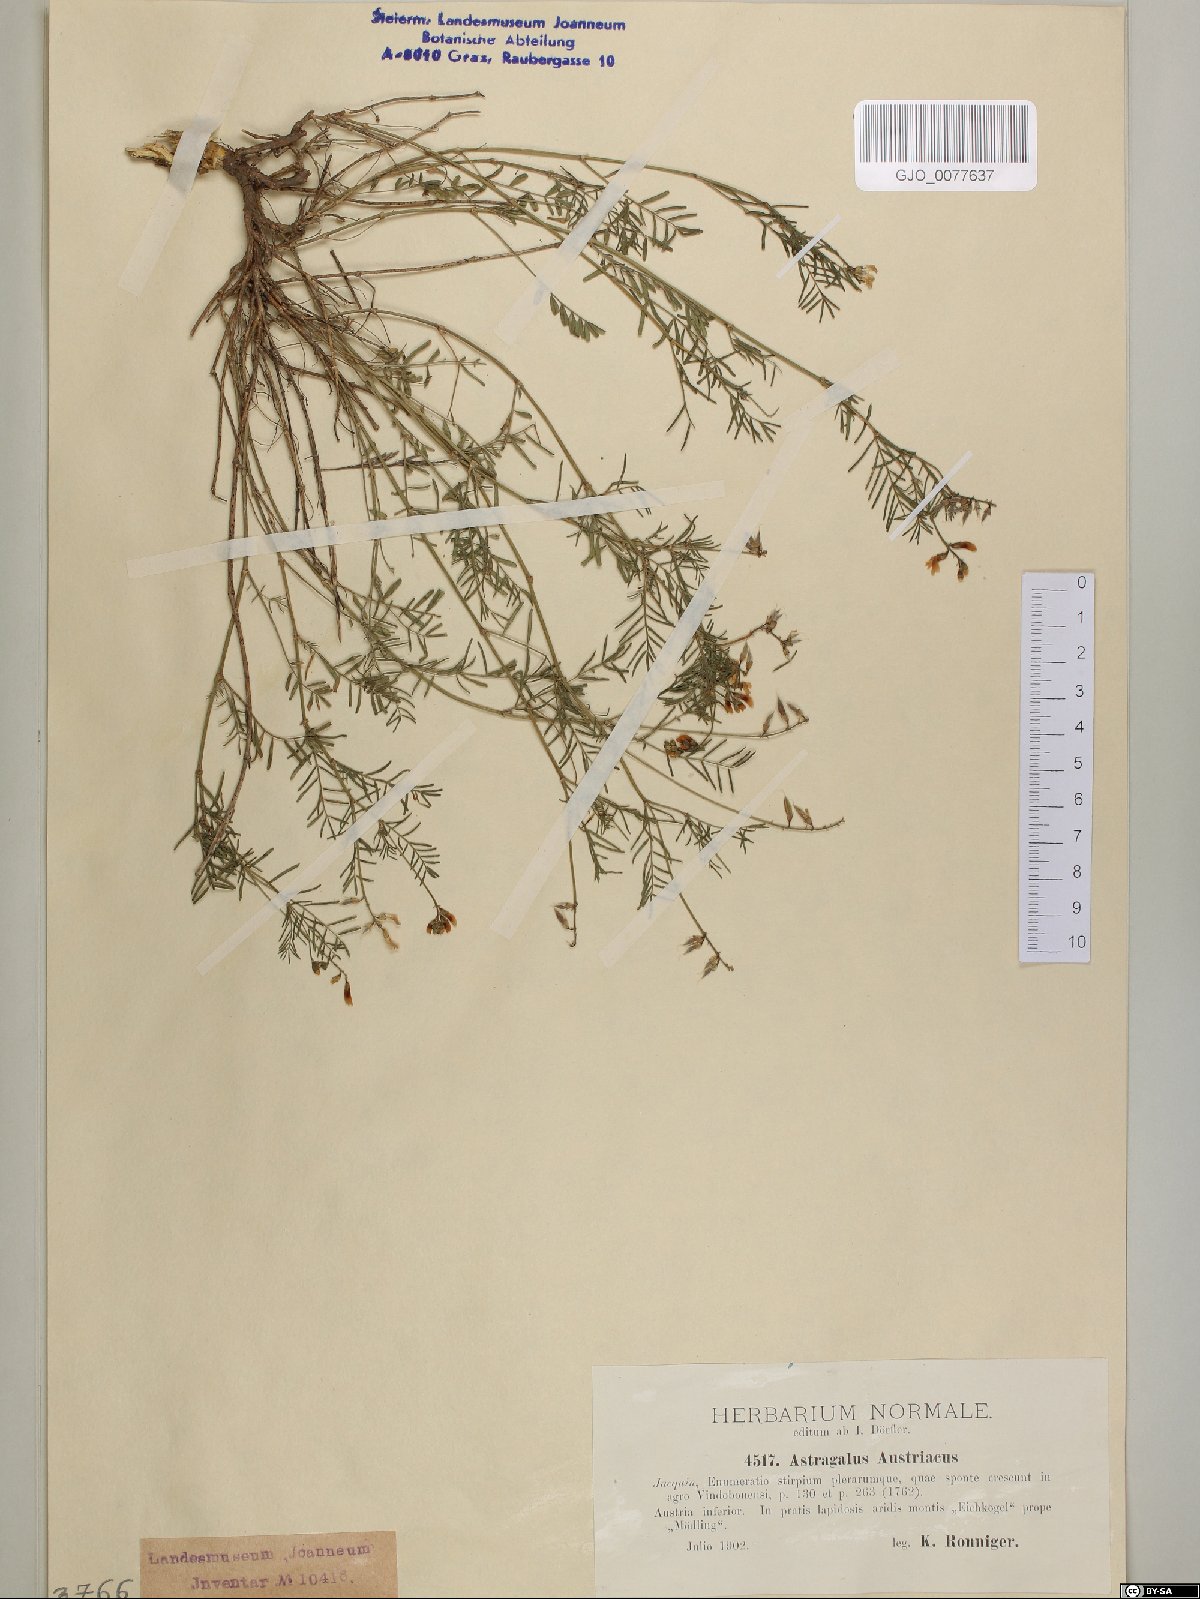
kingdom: Plantae
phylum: Tracheophyta
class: Magnoliopsida
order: Fabales
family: Fabaceae
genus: Astragalus
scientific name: Astragalus austriacus
